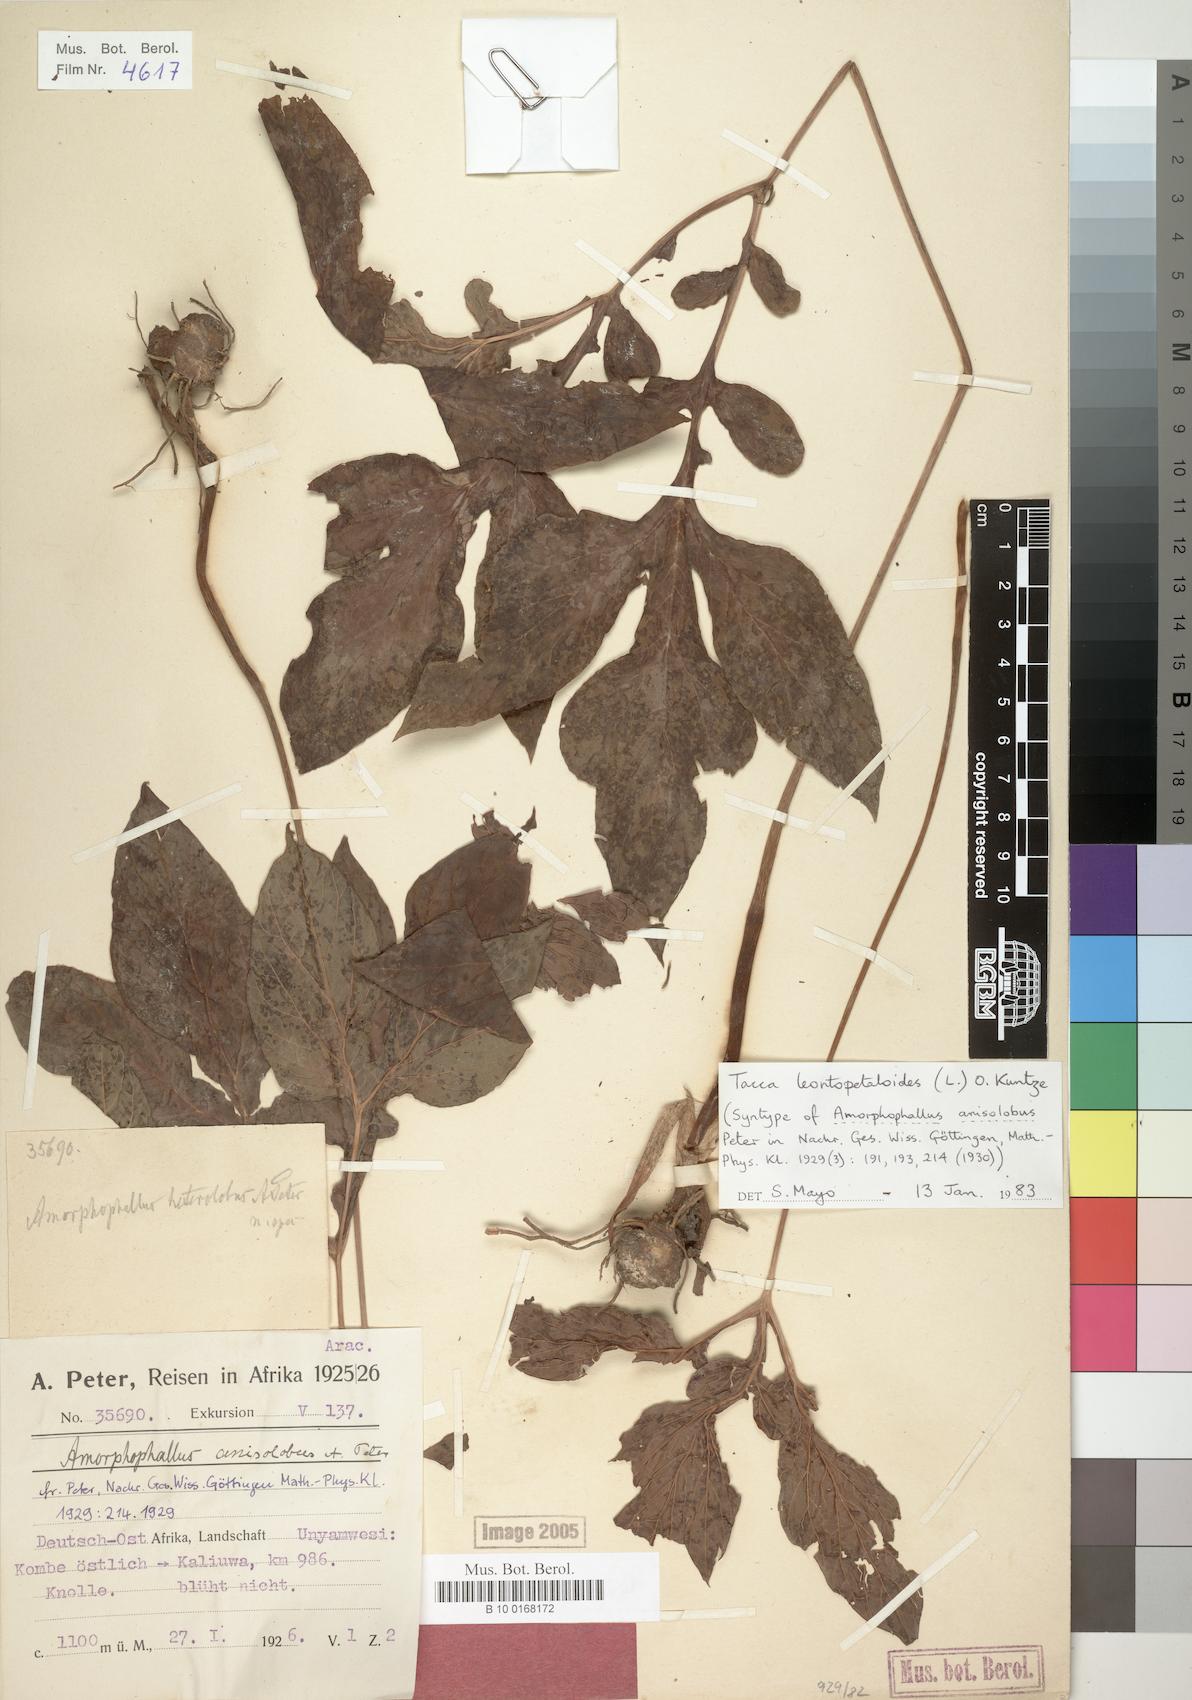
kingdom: Plantae
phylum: Tracheophyta
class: Liliopsida
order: Dioscoreales
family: Dioscoreaceae
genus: Tacca
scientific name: Tacca leontopetaloides
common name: Arrowroot
